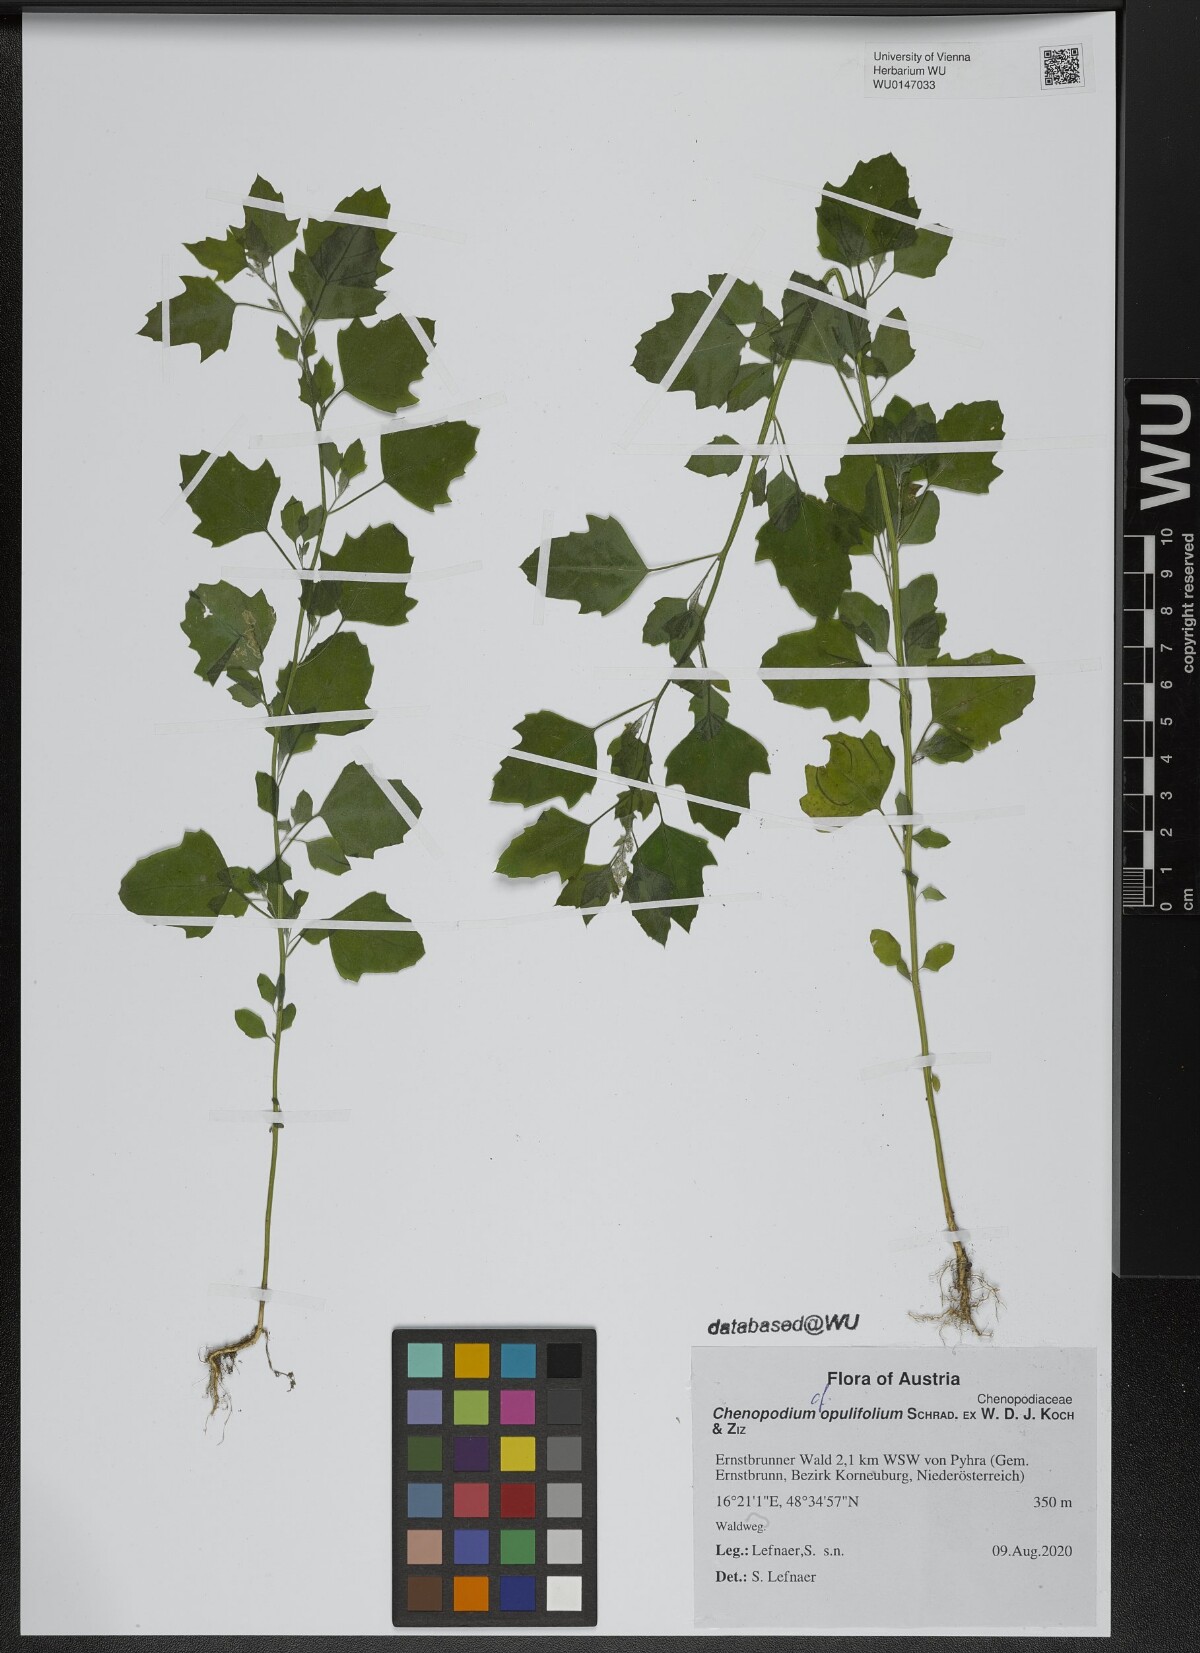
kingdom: Plantae
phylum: Tracheophyta
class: Magnoliopsida
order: Caryophyllales
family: Amaranthaceae
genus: Chenopodium
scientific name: Chenopodium opulifolium
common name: Grey goosefoot
